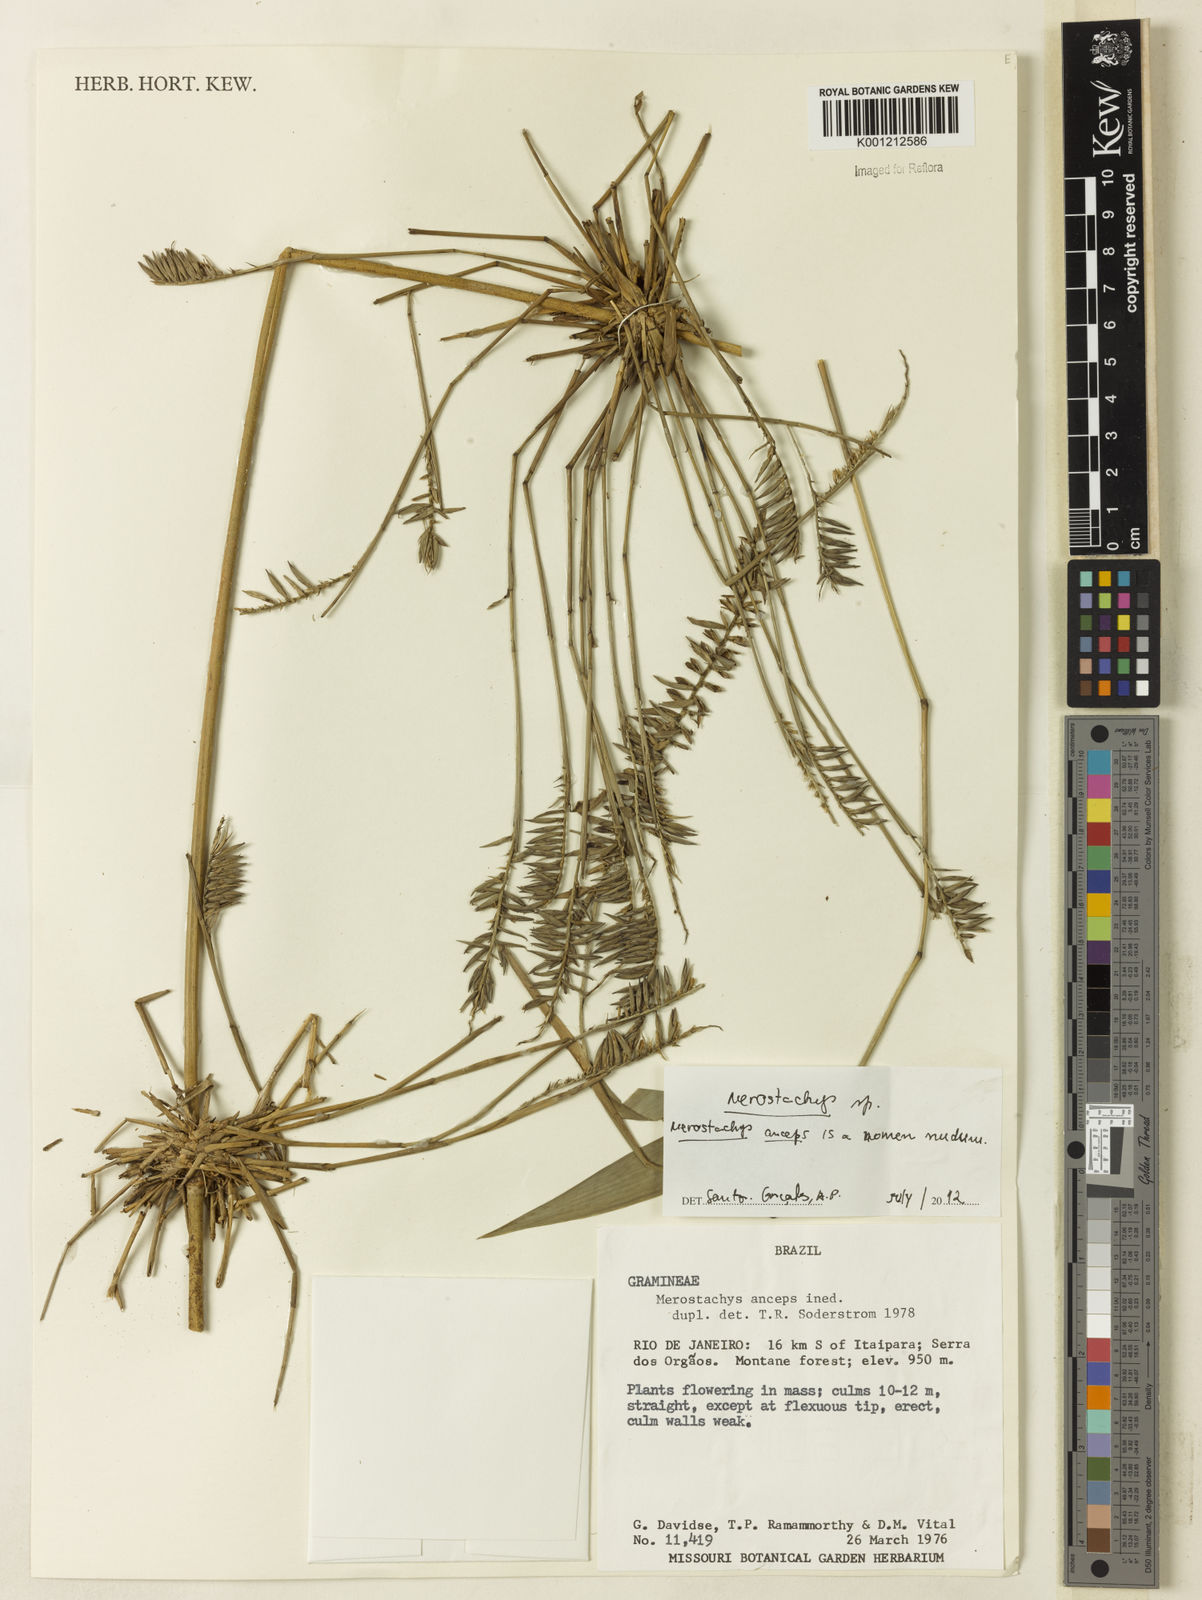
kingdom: Plantae
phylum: Tracheophyta
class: Liliopsida
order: Poales
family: Poaceae
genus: Merostachys
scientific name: Merostachys
